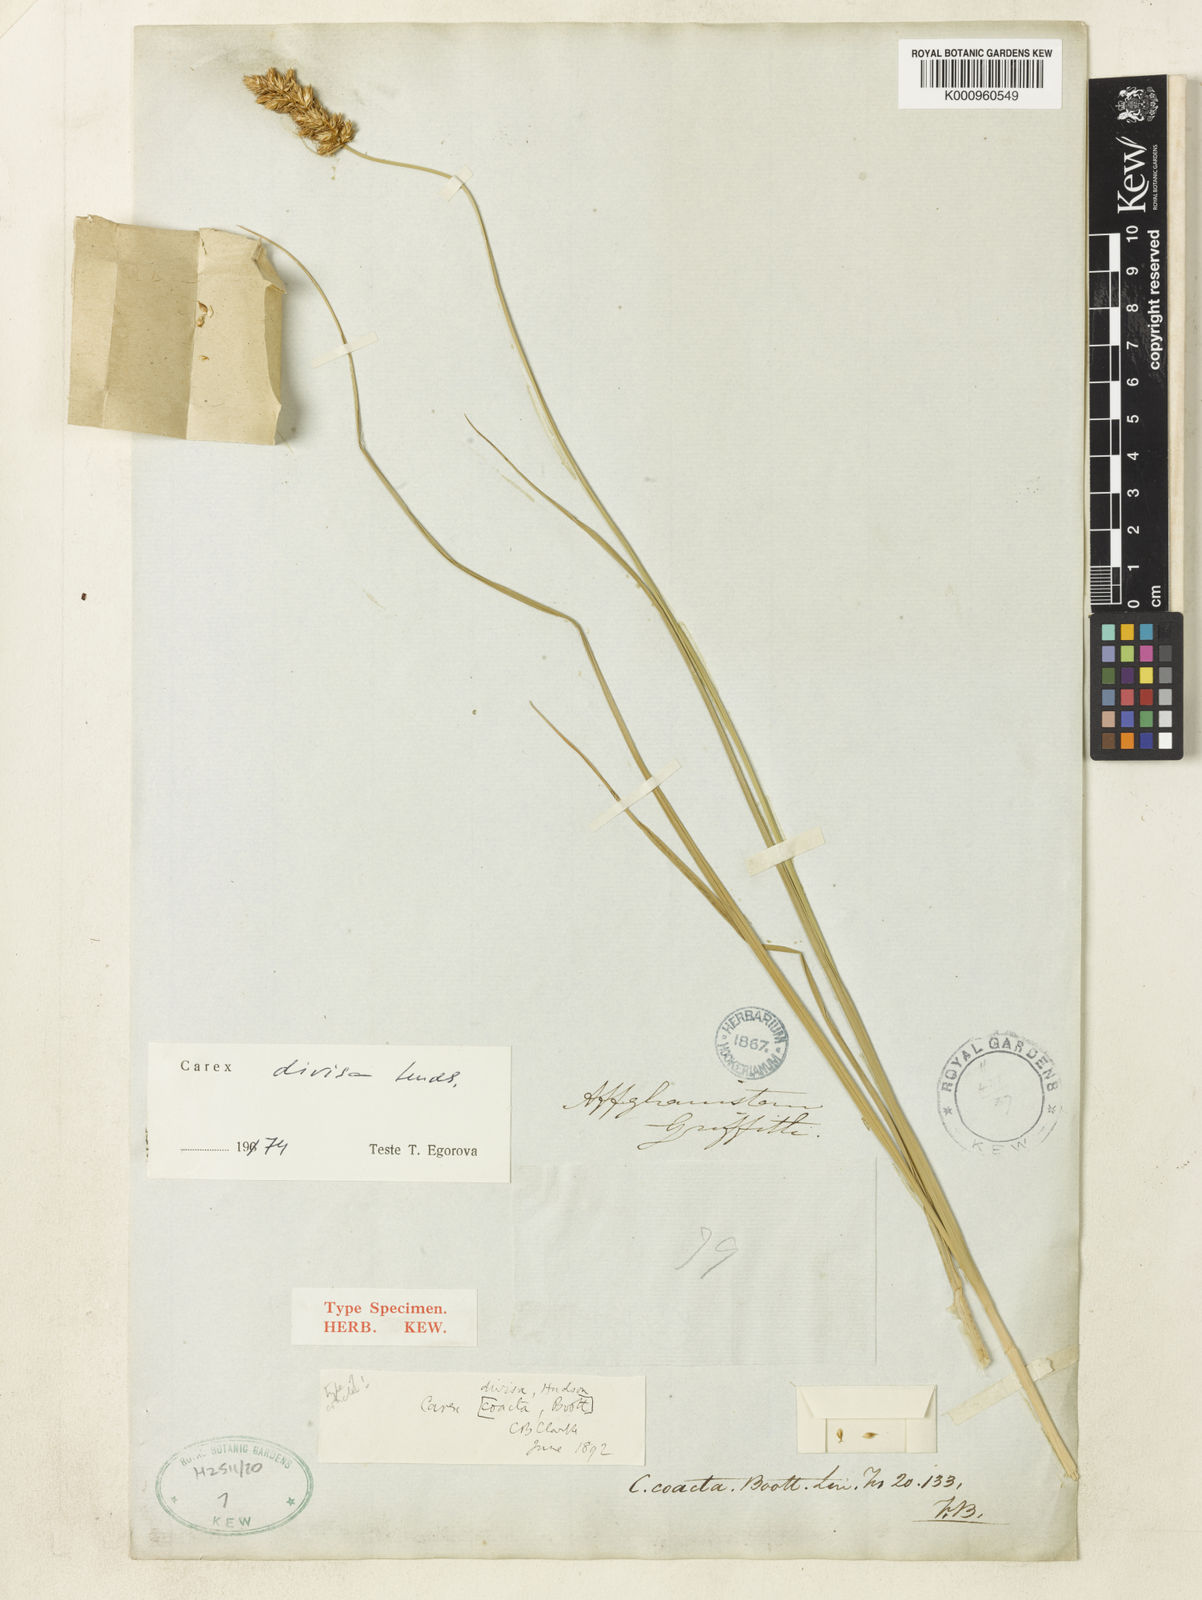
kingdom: Plantae
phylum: Tracheophyta
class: Liliopsida
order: Poales
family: Cyperaceae
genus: Carex
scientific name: Carex divisa
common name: Divided sedge
